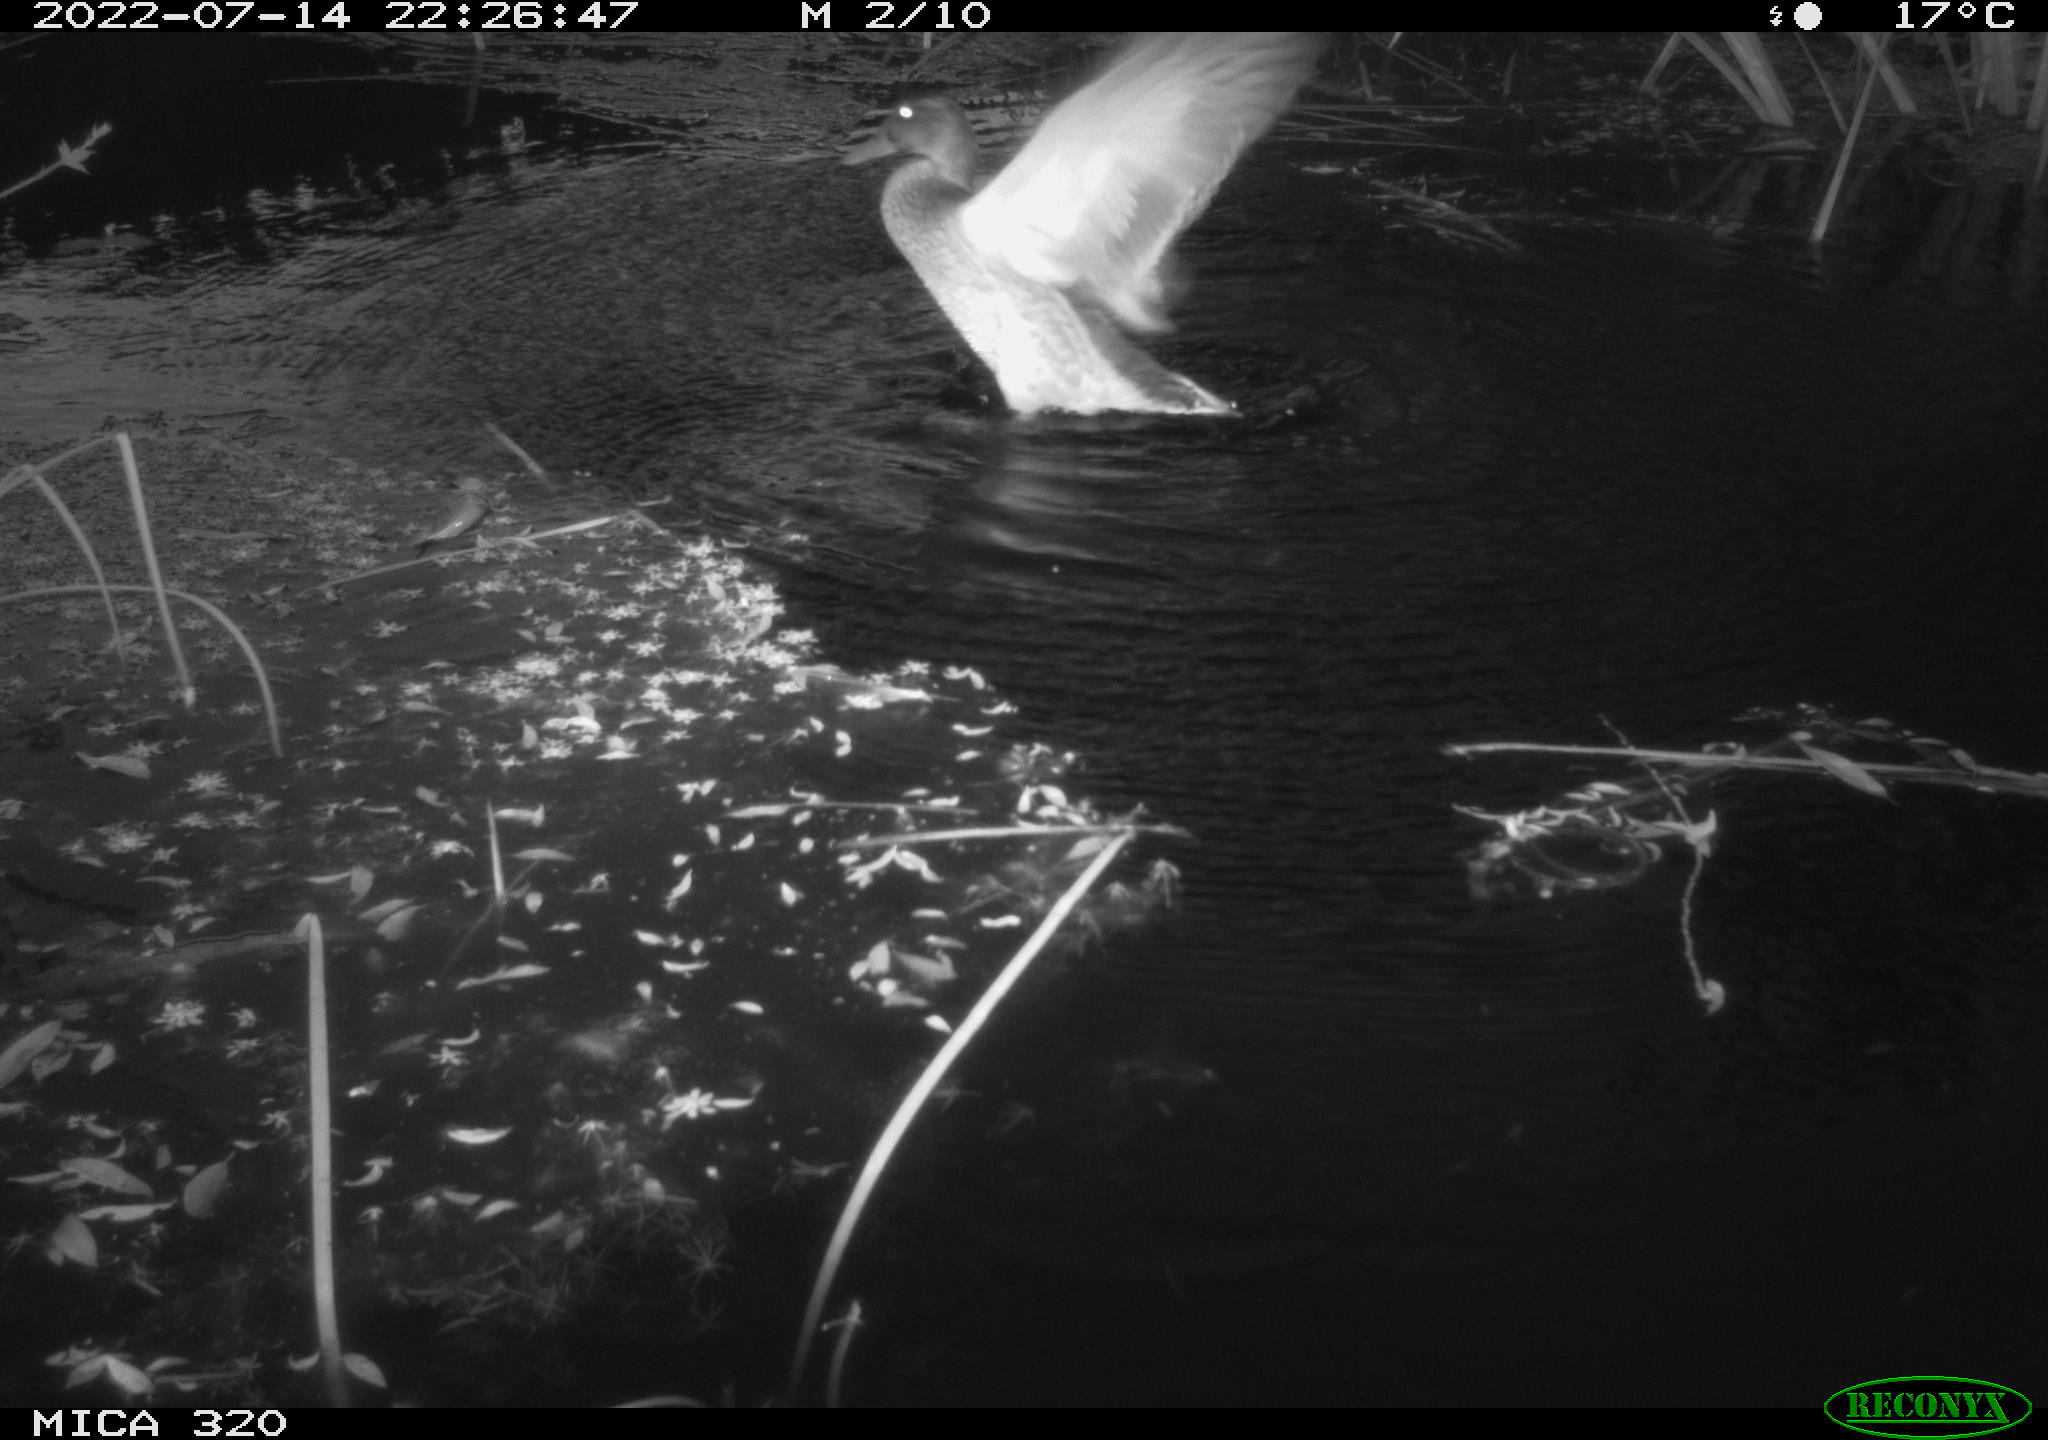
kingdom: Animalia
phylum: Chordata
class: Aves
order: Anseriformes
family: Anatidae
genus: Anas
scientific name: Anas platyrhynchos
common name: Mallard
